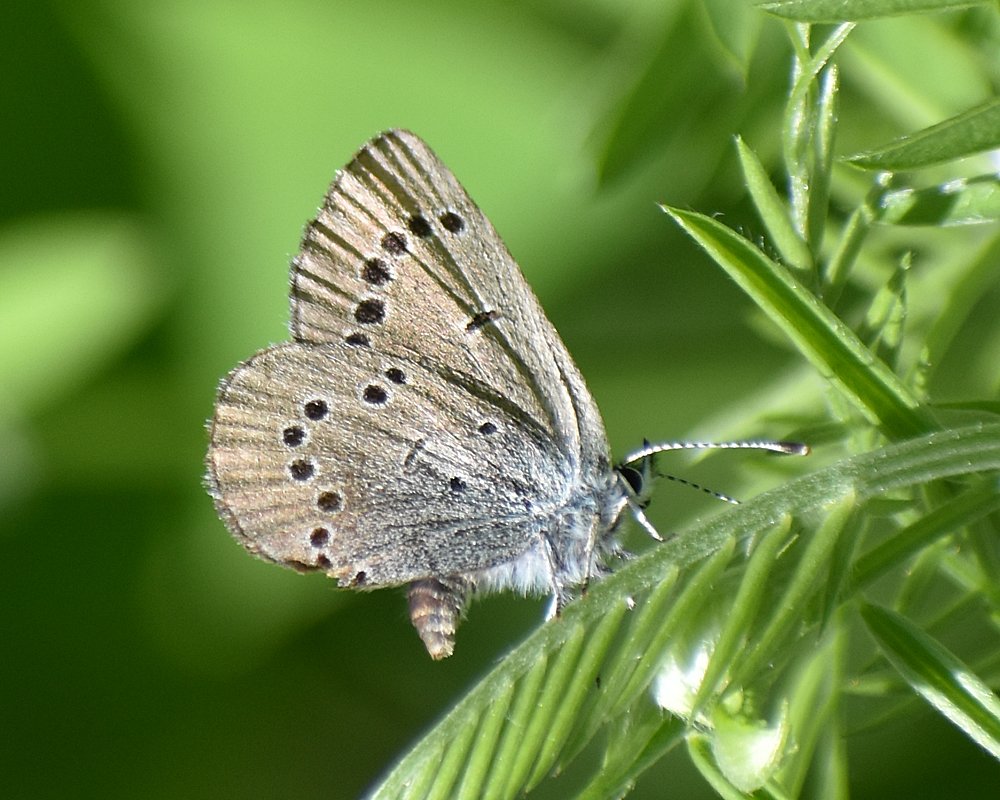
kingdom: Animalia
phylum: Arthropoda
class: Insecta
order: Lepidoptera
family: Lycaenidae
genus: Glaucopsyche
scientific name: Glaucopsyche lygdamus
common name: Silvery Blue
